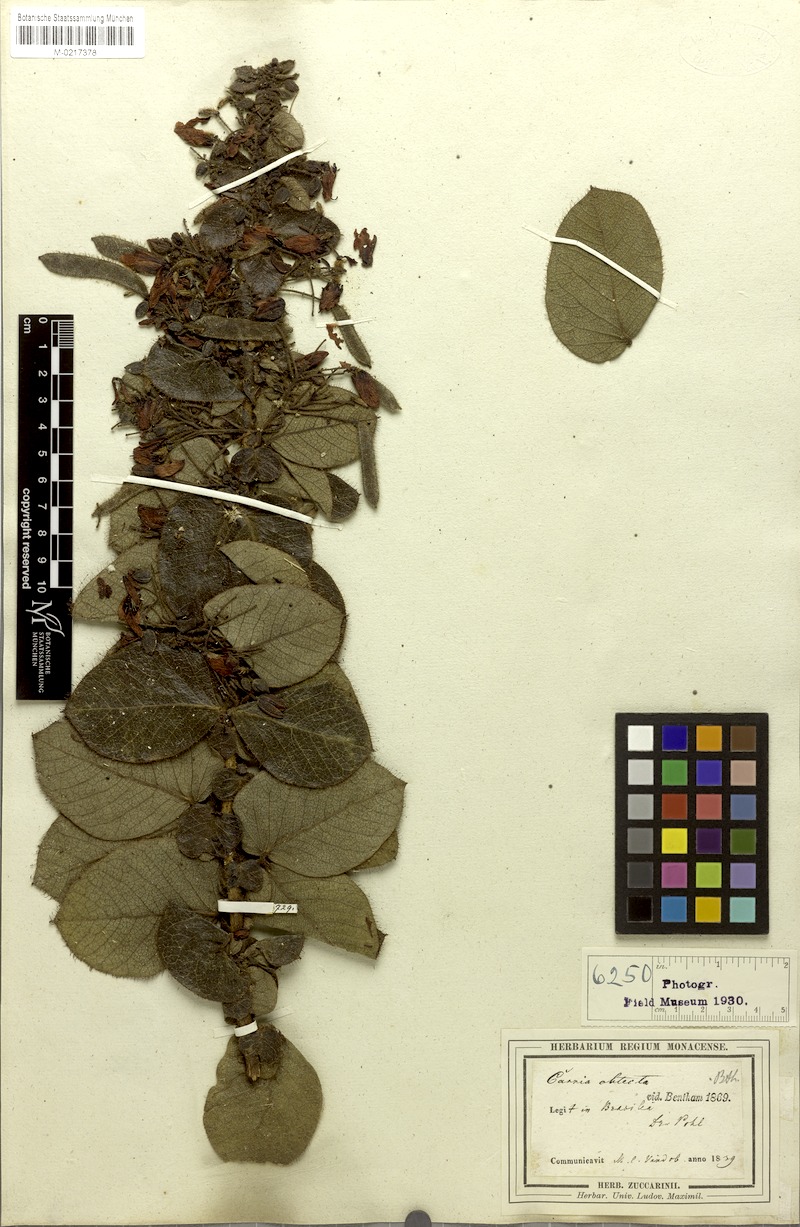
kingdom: Plantae
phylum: Tracheophyta
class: Magnoliopsida
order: Fabales
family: Fabaceae
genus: Chamaecrista
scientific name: Chamaecrista obtecta
